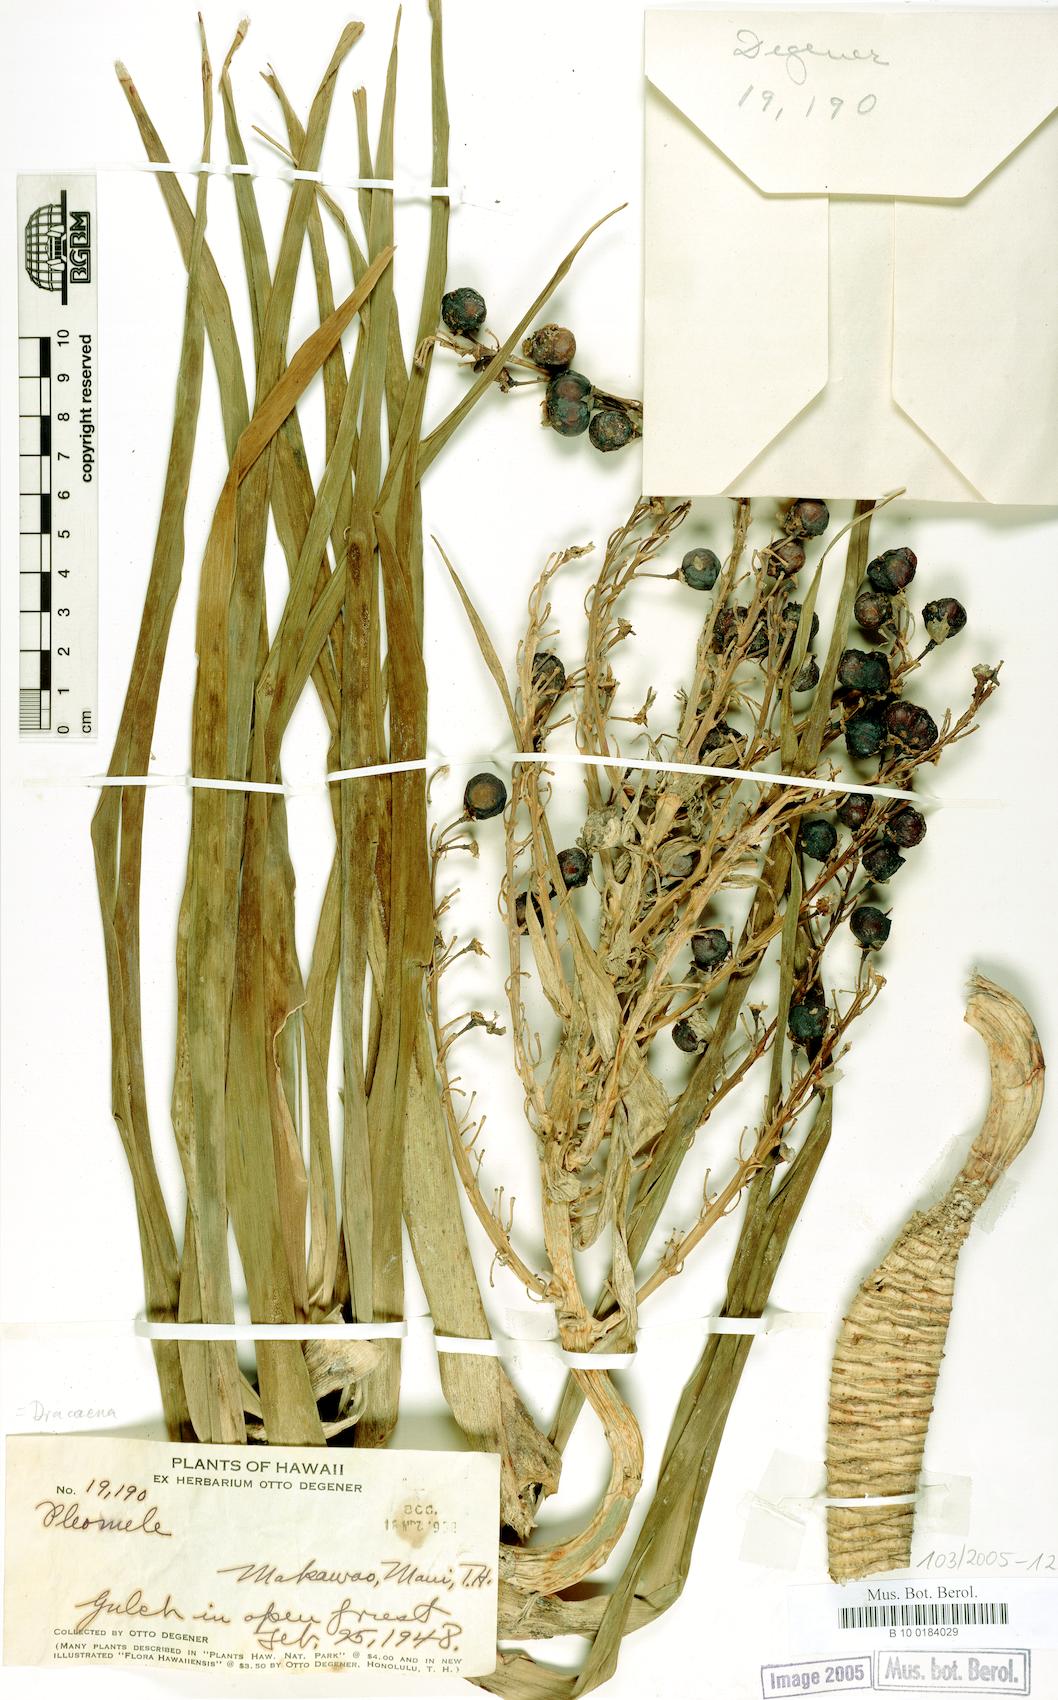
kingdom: Plantae
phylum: Tracheophyta
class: Liliopsida
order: Asparagales
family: Asparagaceae
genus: Dracaena
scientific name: Dracaena
